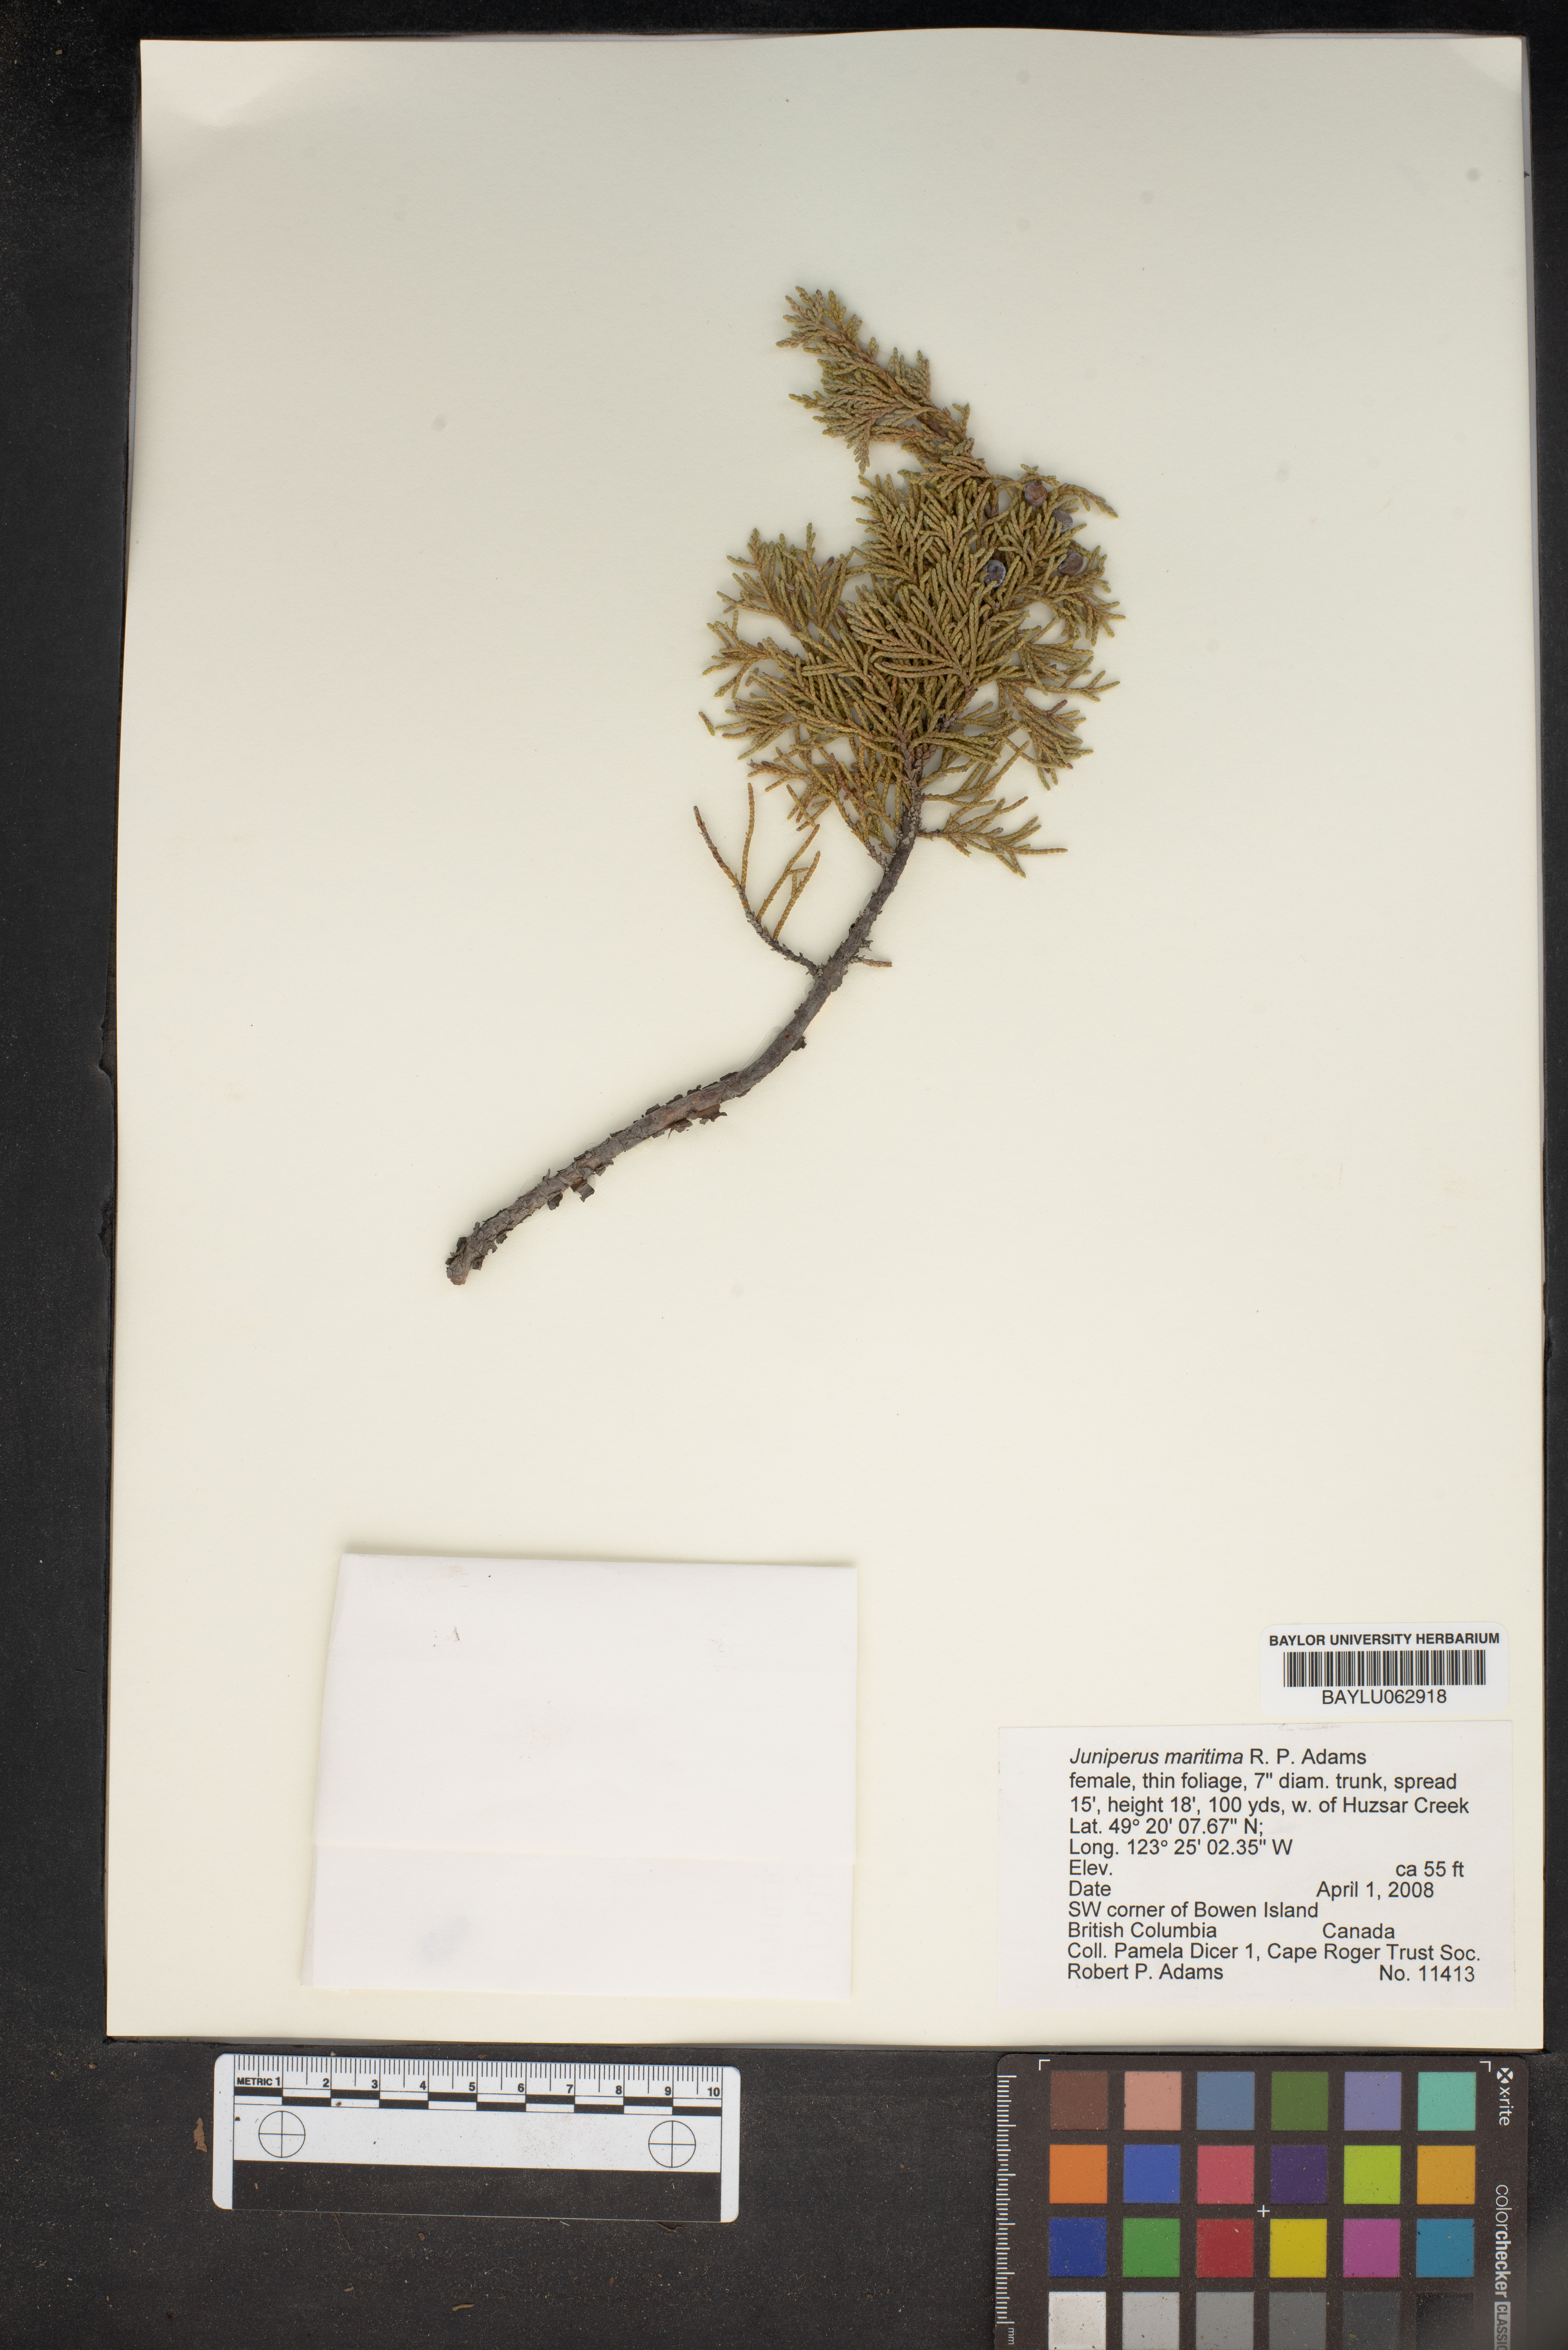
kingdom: Plantae
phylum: Tracheophyta
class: Pinopsida
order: Pinales
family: Cupressaceae
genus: Juniperus
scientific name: Juniperus scopulorum
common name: Rocky mountain juniper
